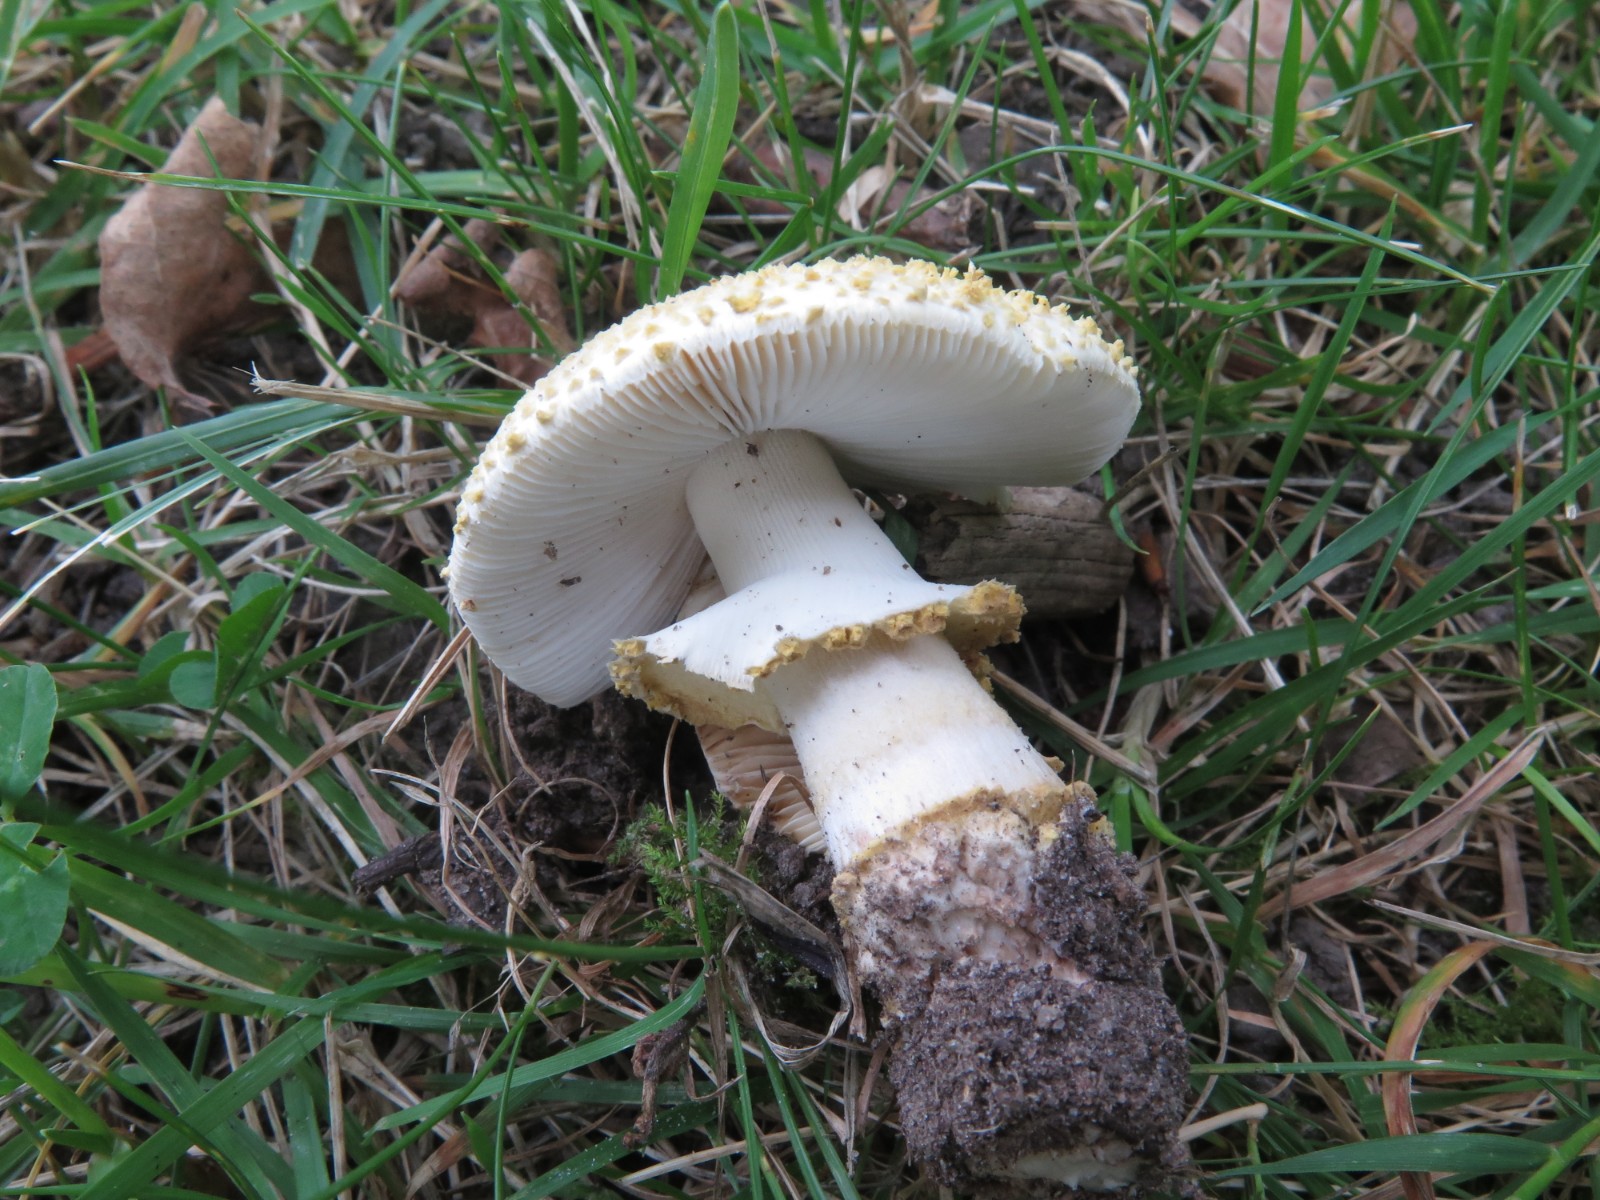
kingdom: Fungi
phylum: Basidiomycota
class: Agaricomycetes
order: Agaricales
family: Amanitaceae
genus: Amanita
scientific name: Amanita franchetii
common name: gulrandet fluesvamp
